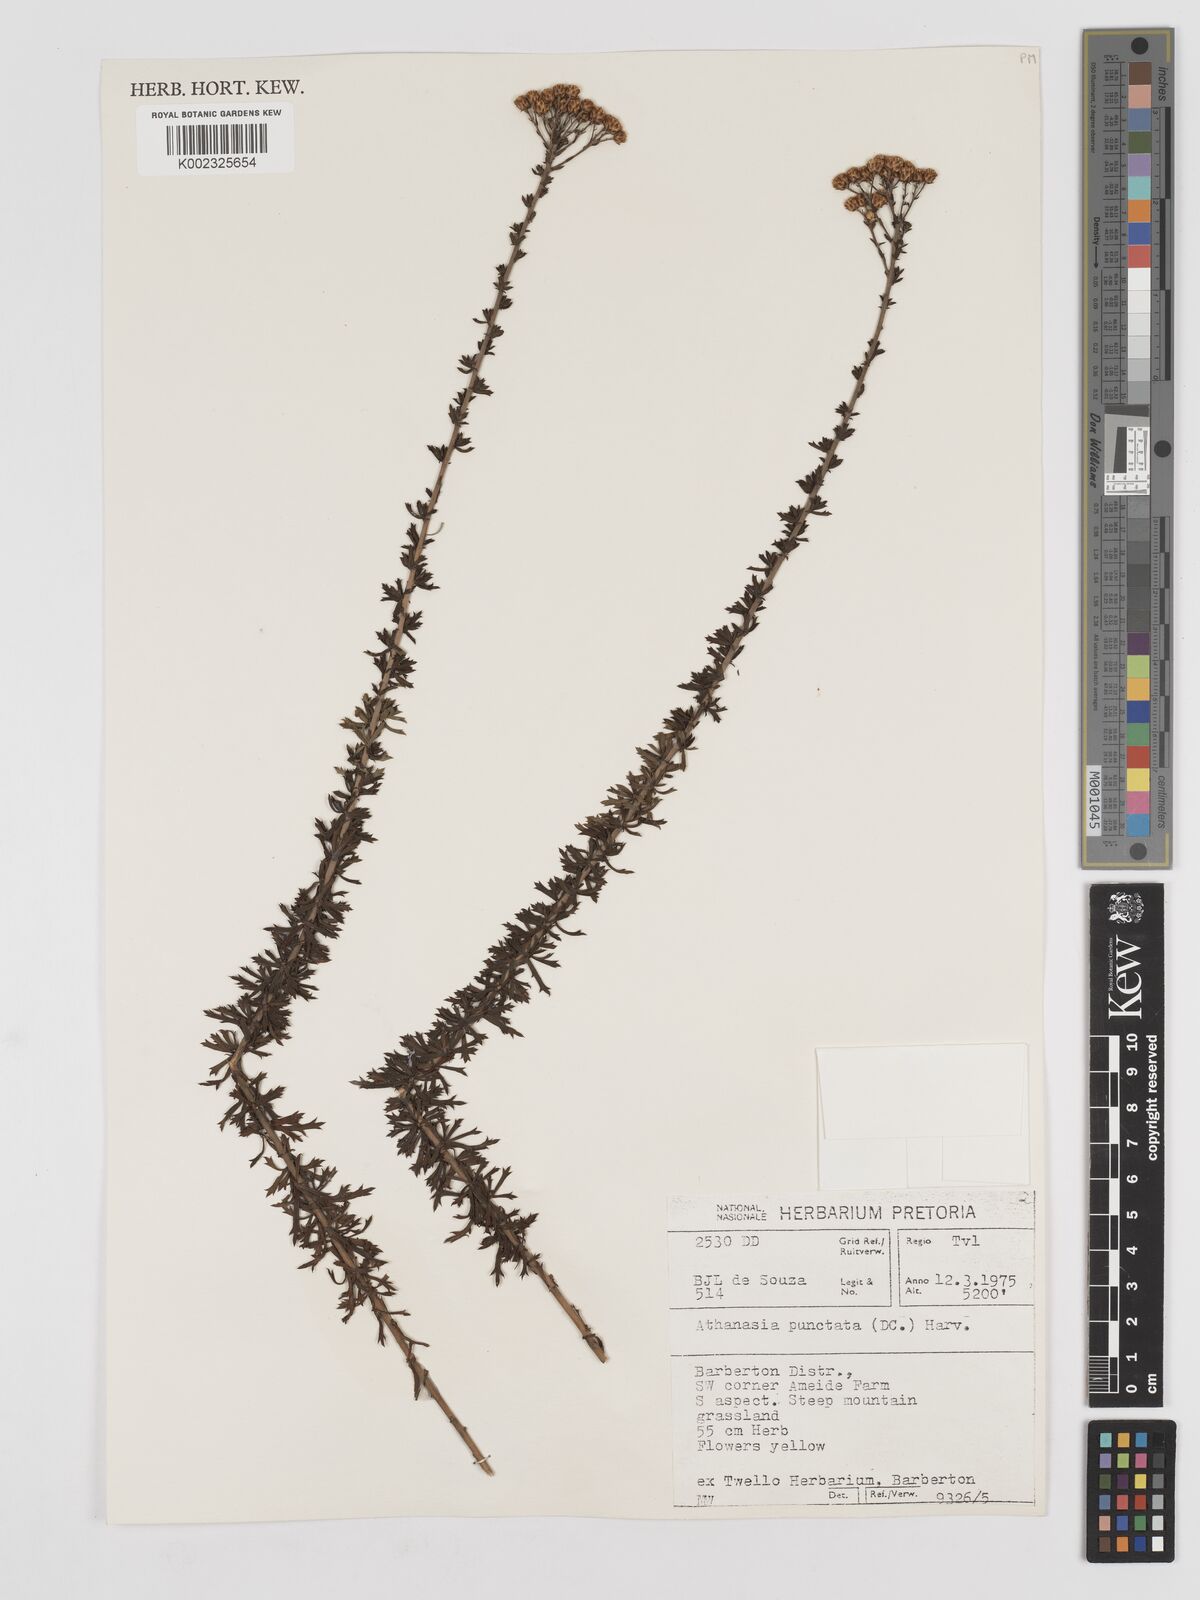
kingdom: Plantae
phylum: Tracheophyta
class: Magnoliopsida
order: Asterales
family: Asteraceae
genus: Inulanthera
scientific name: Inulanthera dregeana
